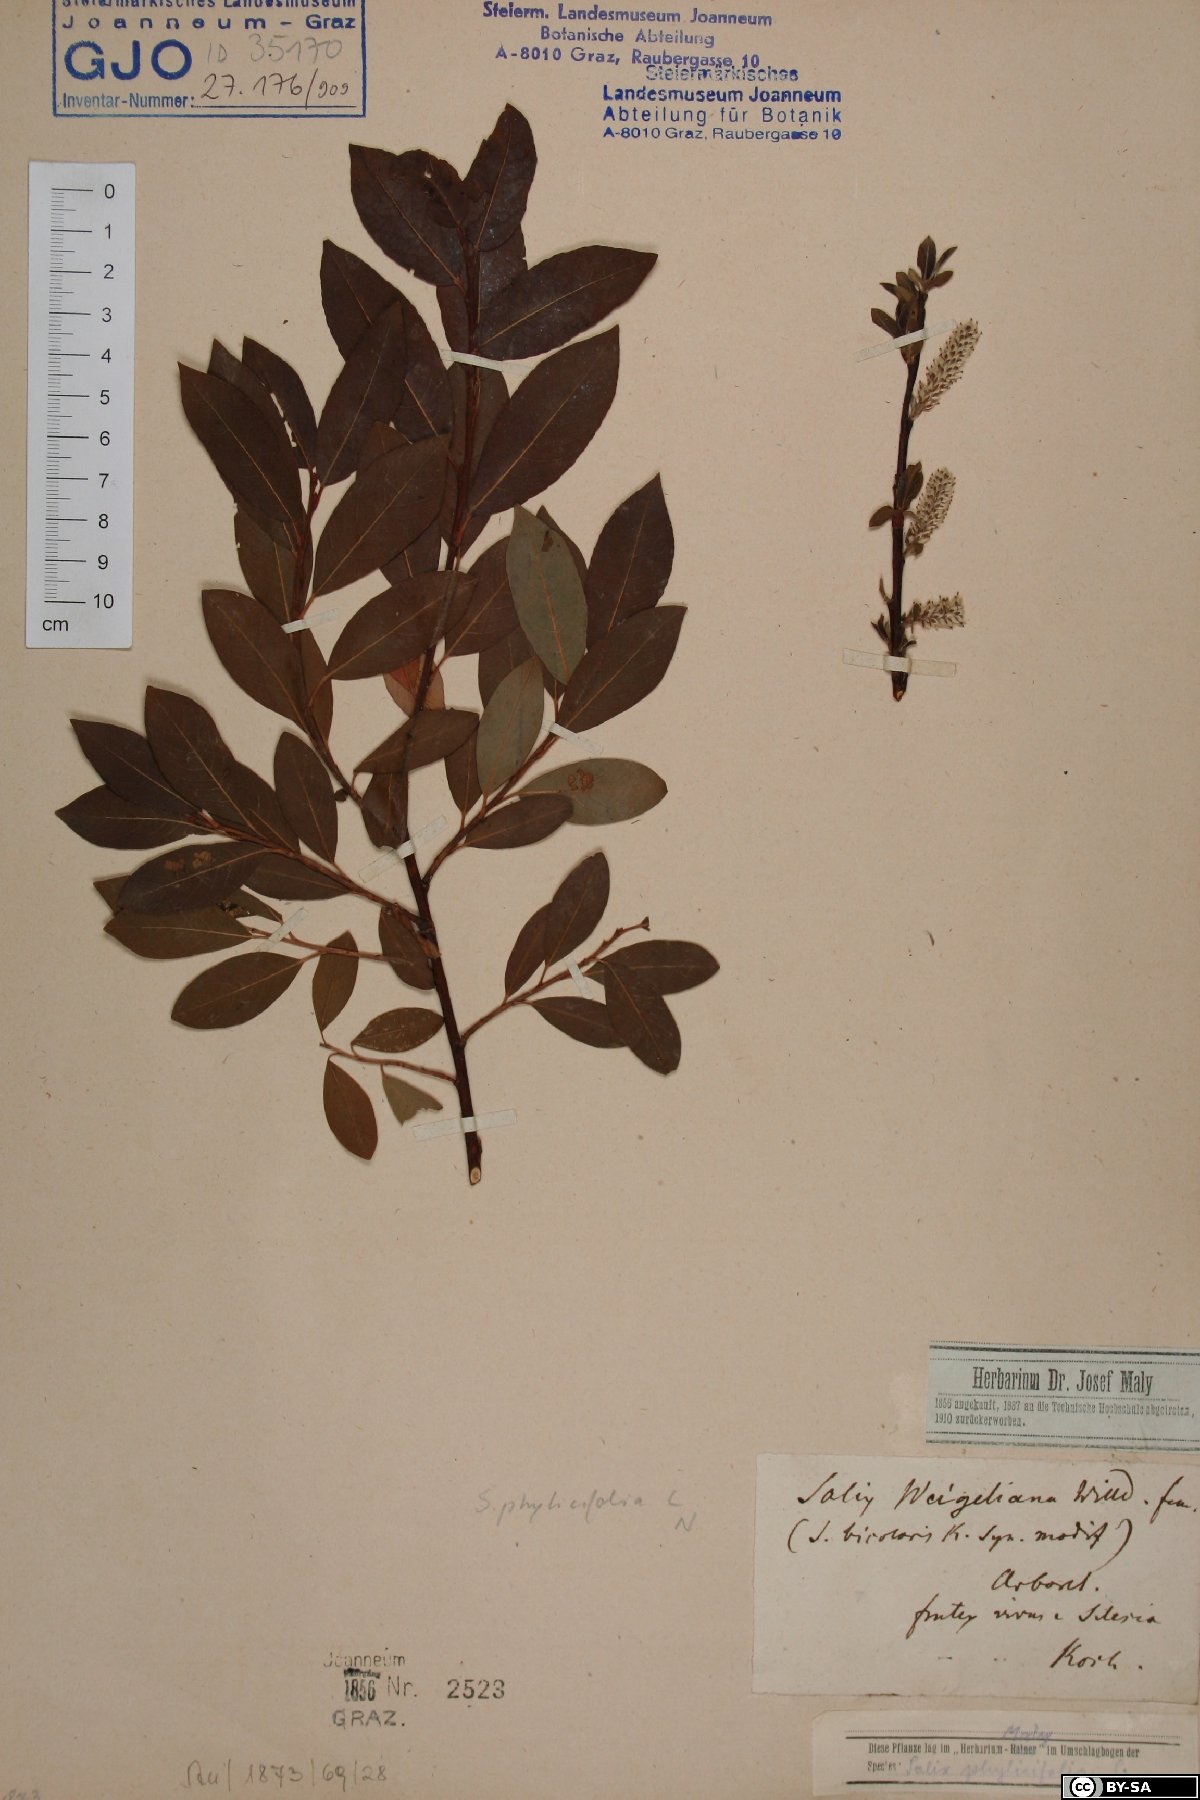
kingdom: Plantae
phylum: Tracheophyta
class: Magnoliopsida
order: Malpighiales
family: Salicaceae
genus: Salix
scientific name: Salix phylicifolia
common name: Tea-leaved willow
